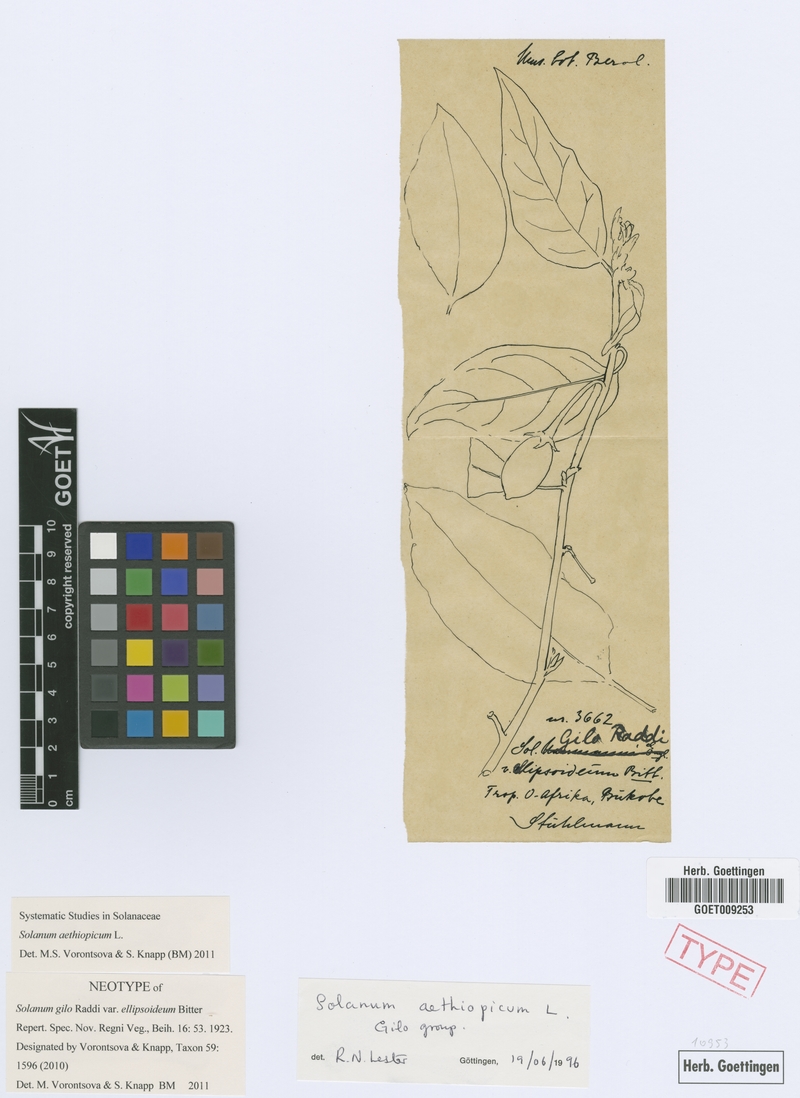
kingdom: Plantae
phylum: Tracheophyta
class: Magnoliopsida
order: Solanales
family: Solanaceae
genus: Solanum
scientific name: Solanum aethiopicum
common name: Gilo
